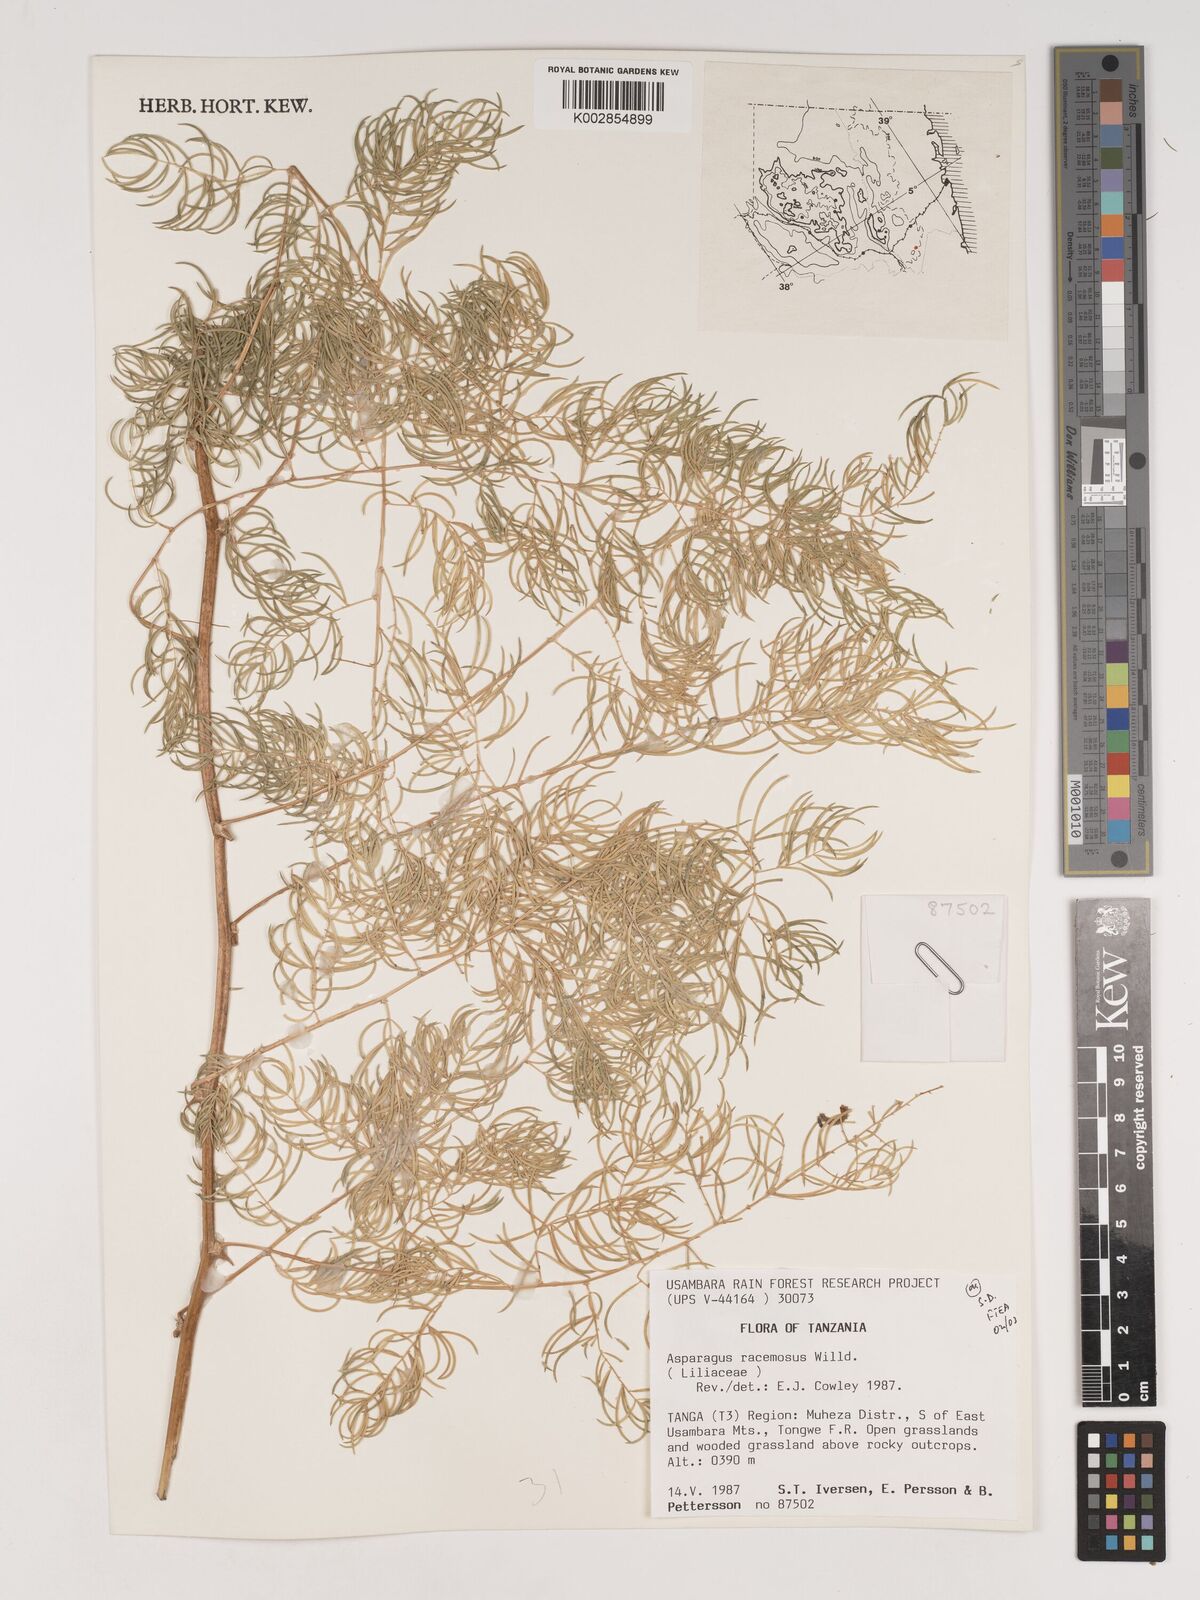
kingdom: Plantae
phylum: Tracheophyta
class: Liliopsida
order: Asparagales
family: Asparagaceae
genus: Asparagus
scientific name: Asparagus racemosus
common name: Asparagus-fern
